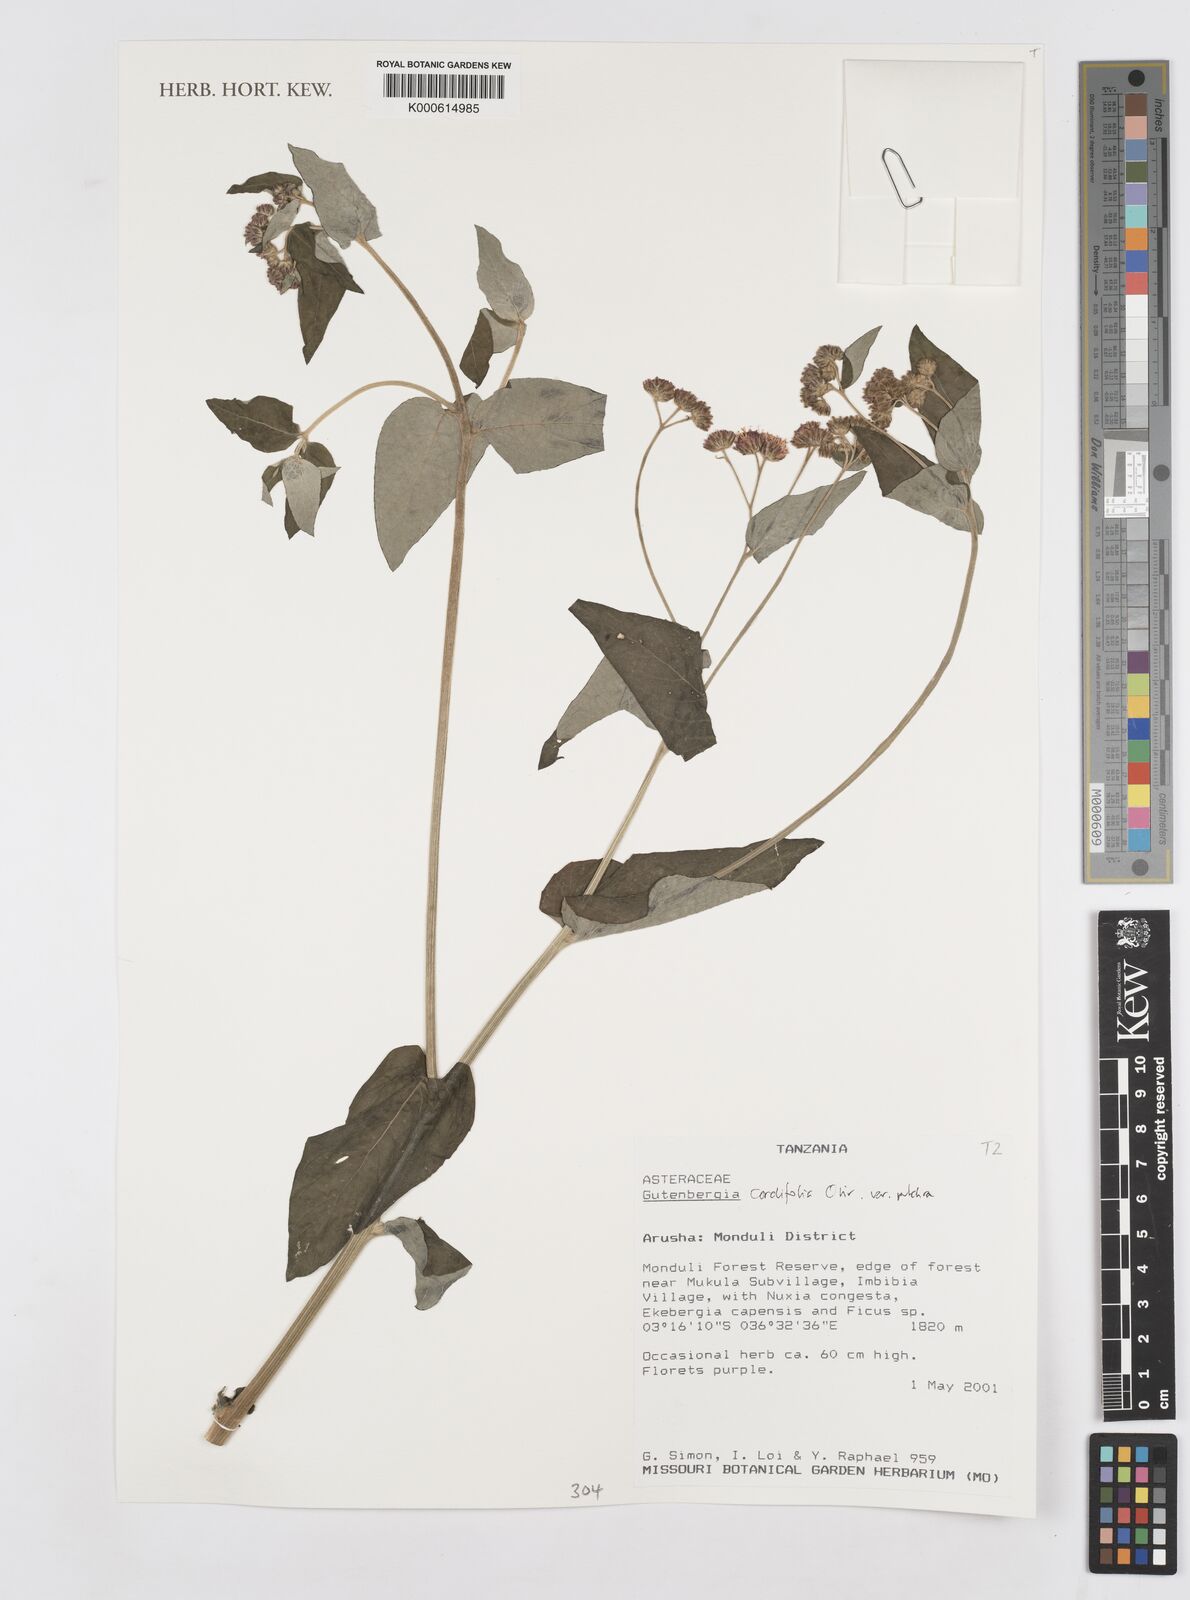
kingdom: Plantae
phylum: Tracheophyta
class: Magnoliopsida
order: Asterales
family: Asteraceae
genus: Gutenbergia
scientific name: Gutenbergia cordifolia
